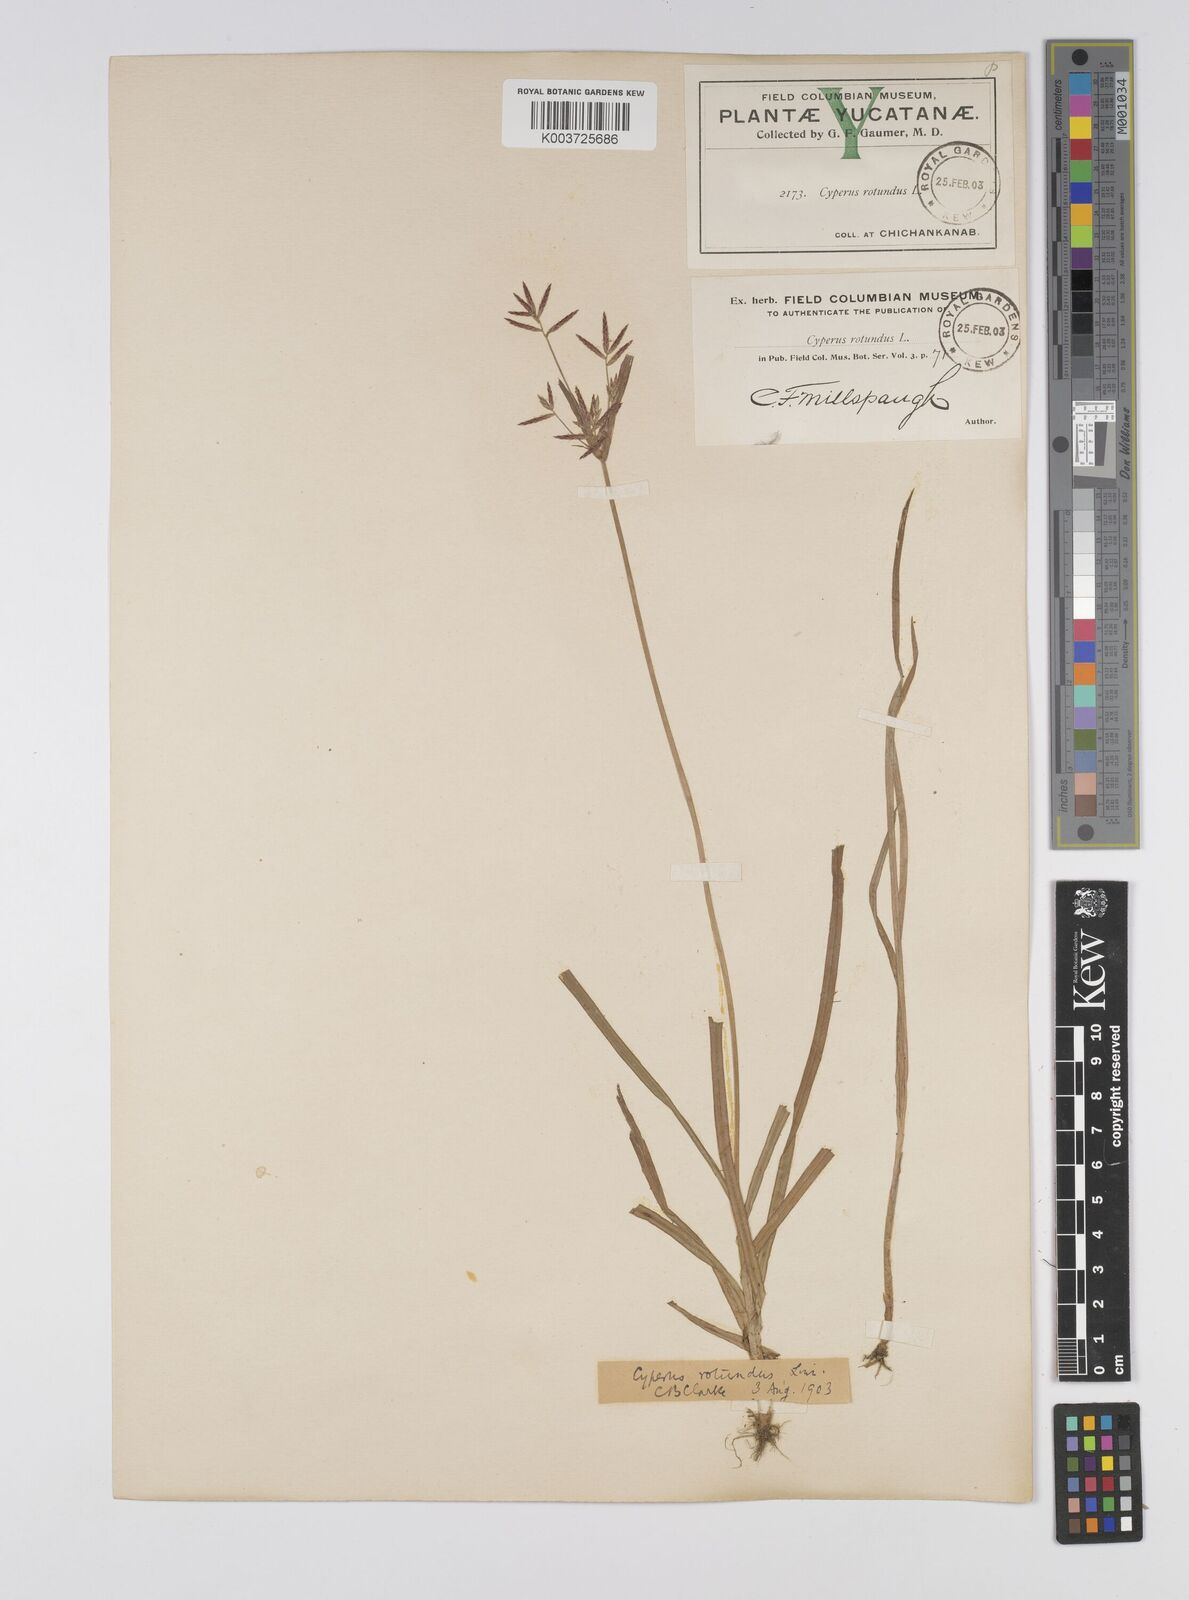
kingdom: Plantae
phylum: Tracheophyta
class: Liliopsida
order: Poales
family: Cyperaceae
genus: Cyperus
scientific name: Cyperus rotundus
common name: Nutgrass
